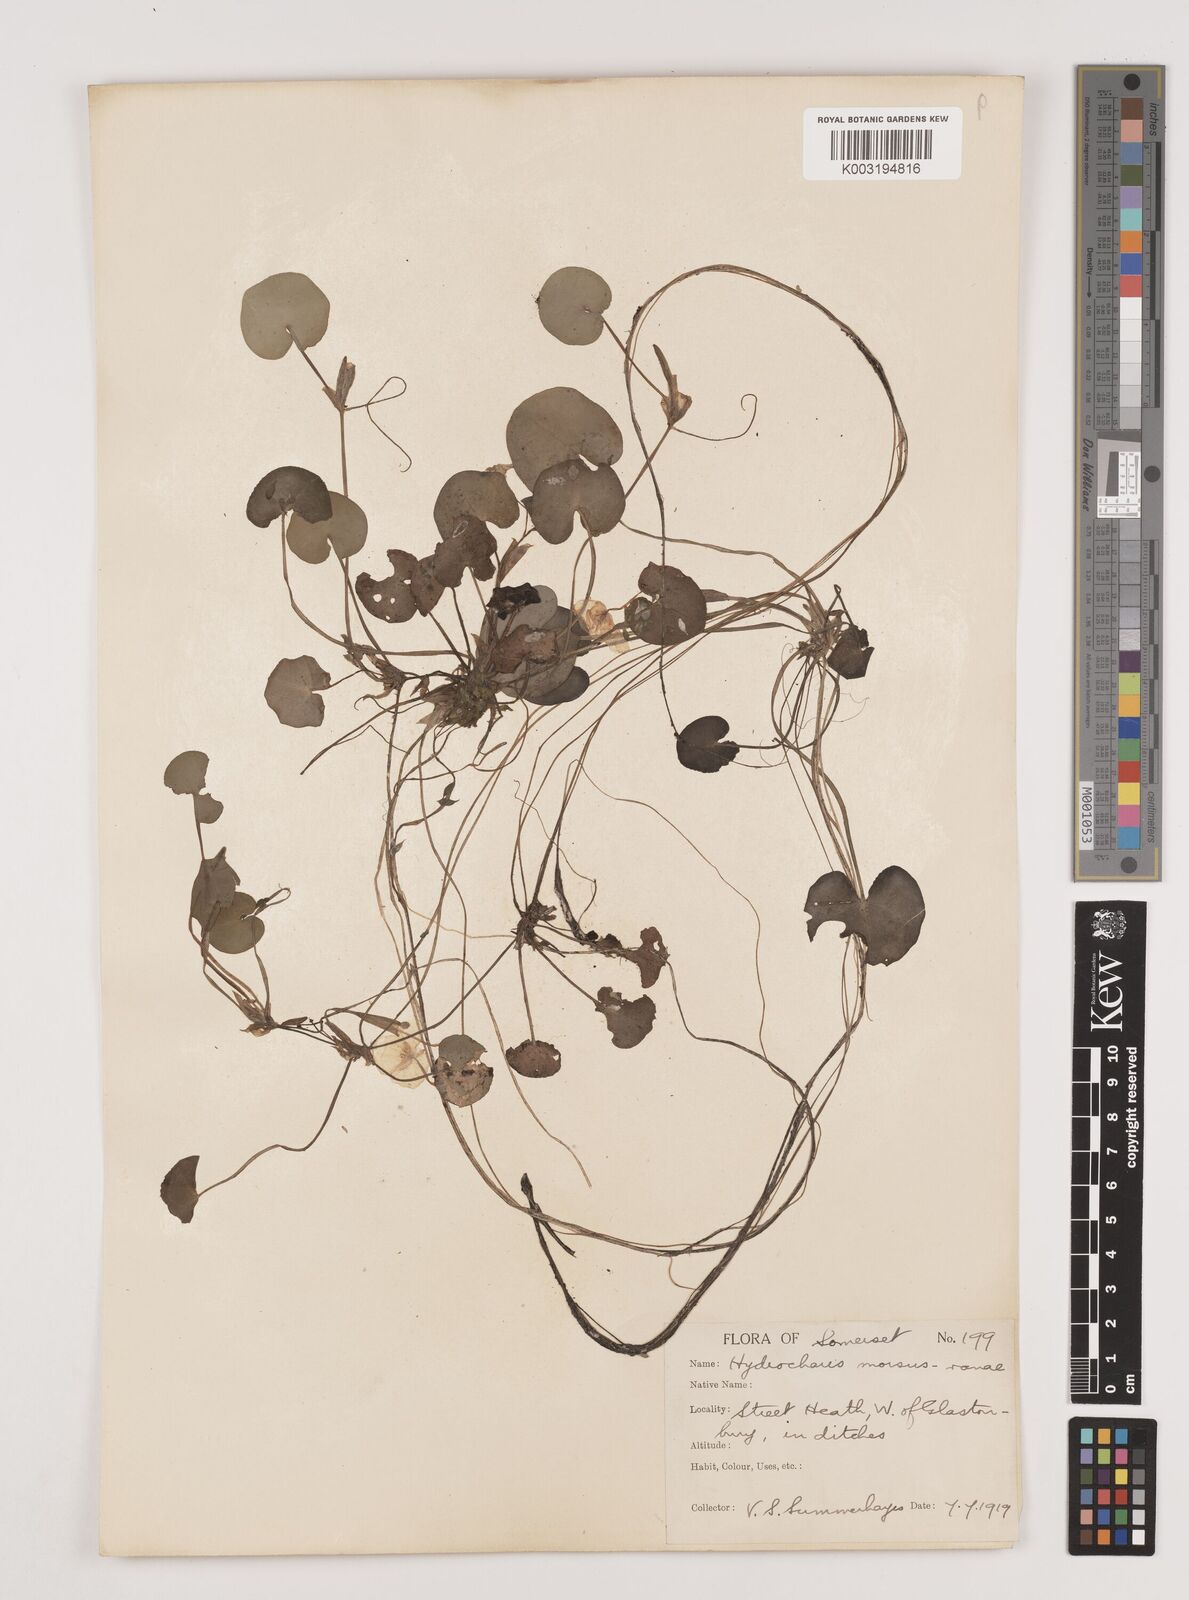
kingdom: Plantae
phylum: Tracheophyta
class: Liliopsida
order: Alismatales
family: Hydrocharitaceae
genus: Hydrocharis
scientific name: Hydrocharis morsus-ranae
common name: Frogbit
